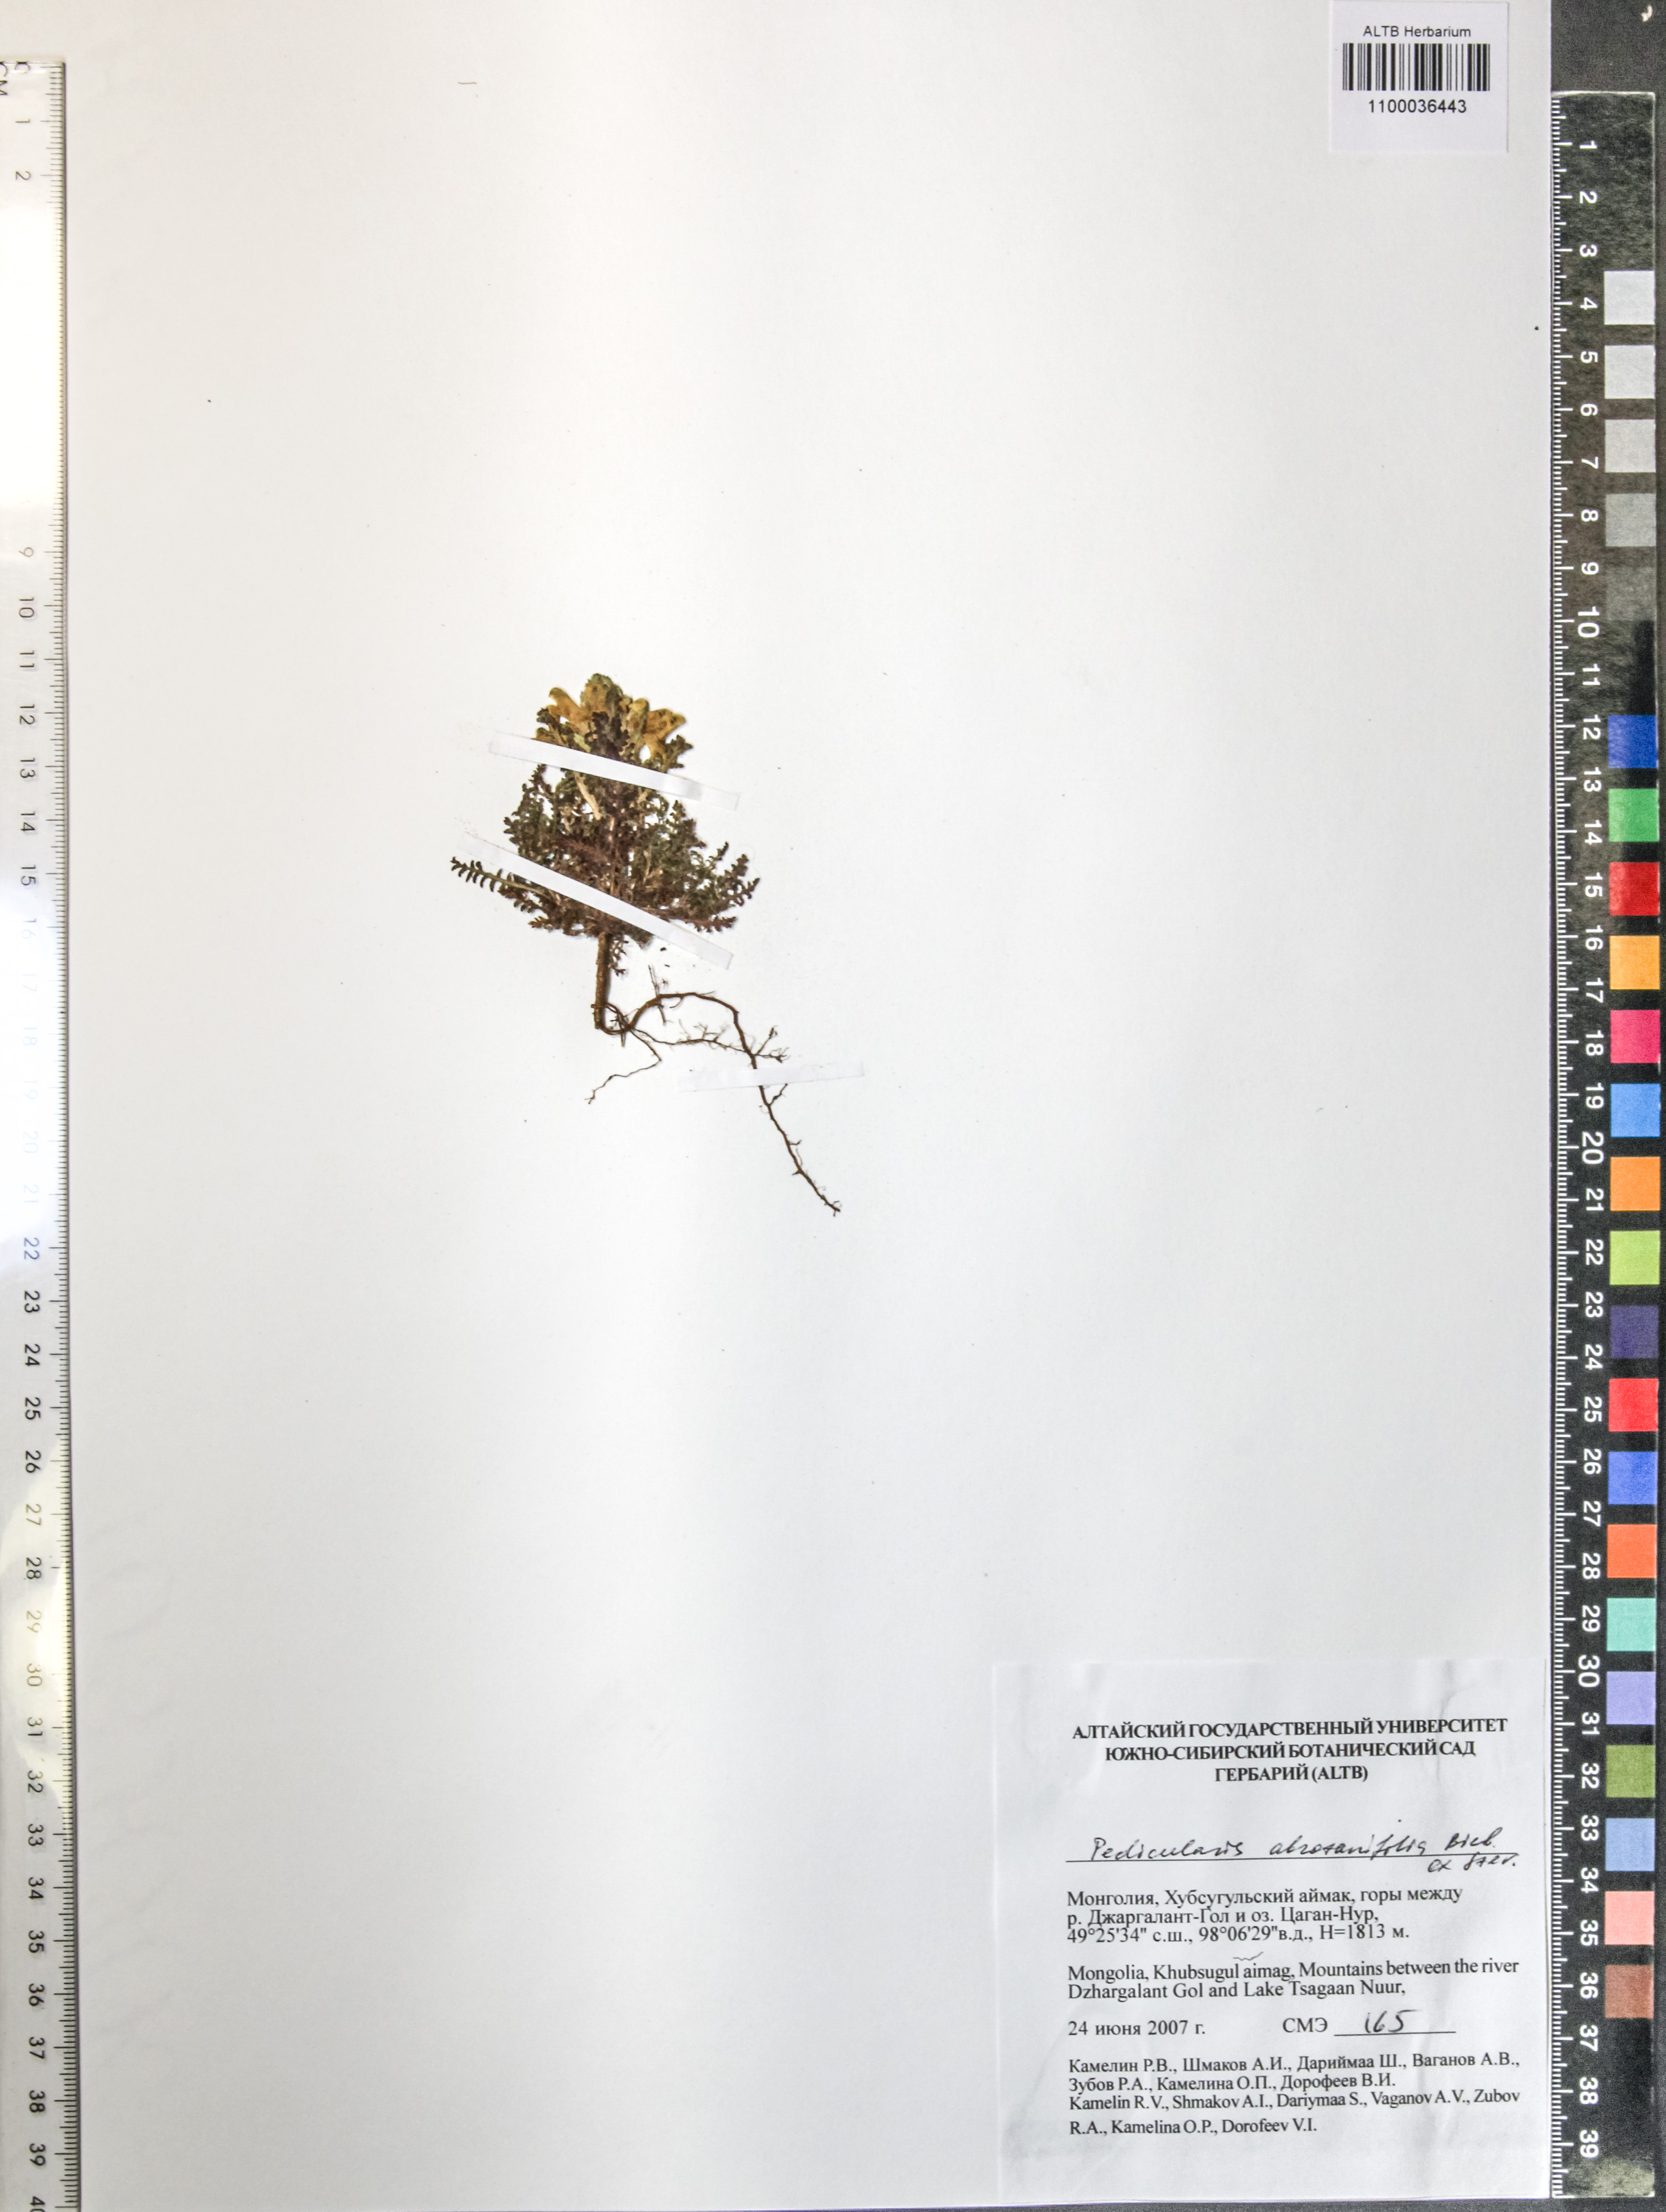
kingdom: Plantae
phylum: Tracheophyta
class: Magnoliopsida
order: Lamiales
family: Orobanchaceae
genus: Pedicularis
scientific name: Pedicularis abrotanifolia
